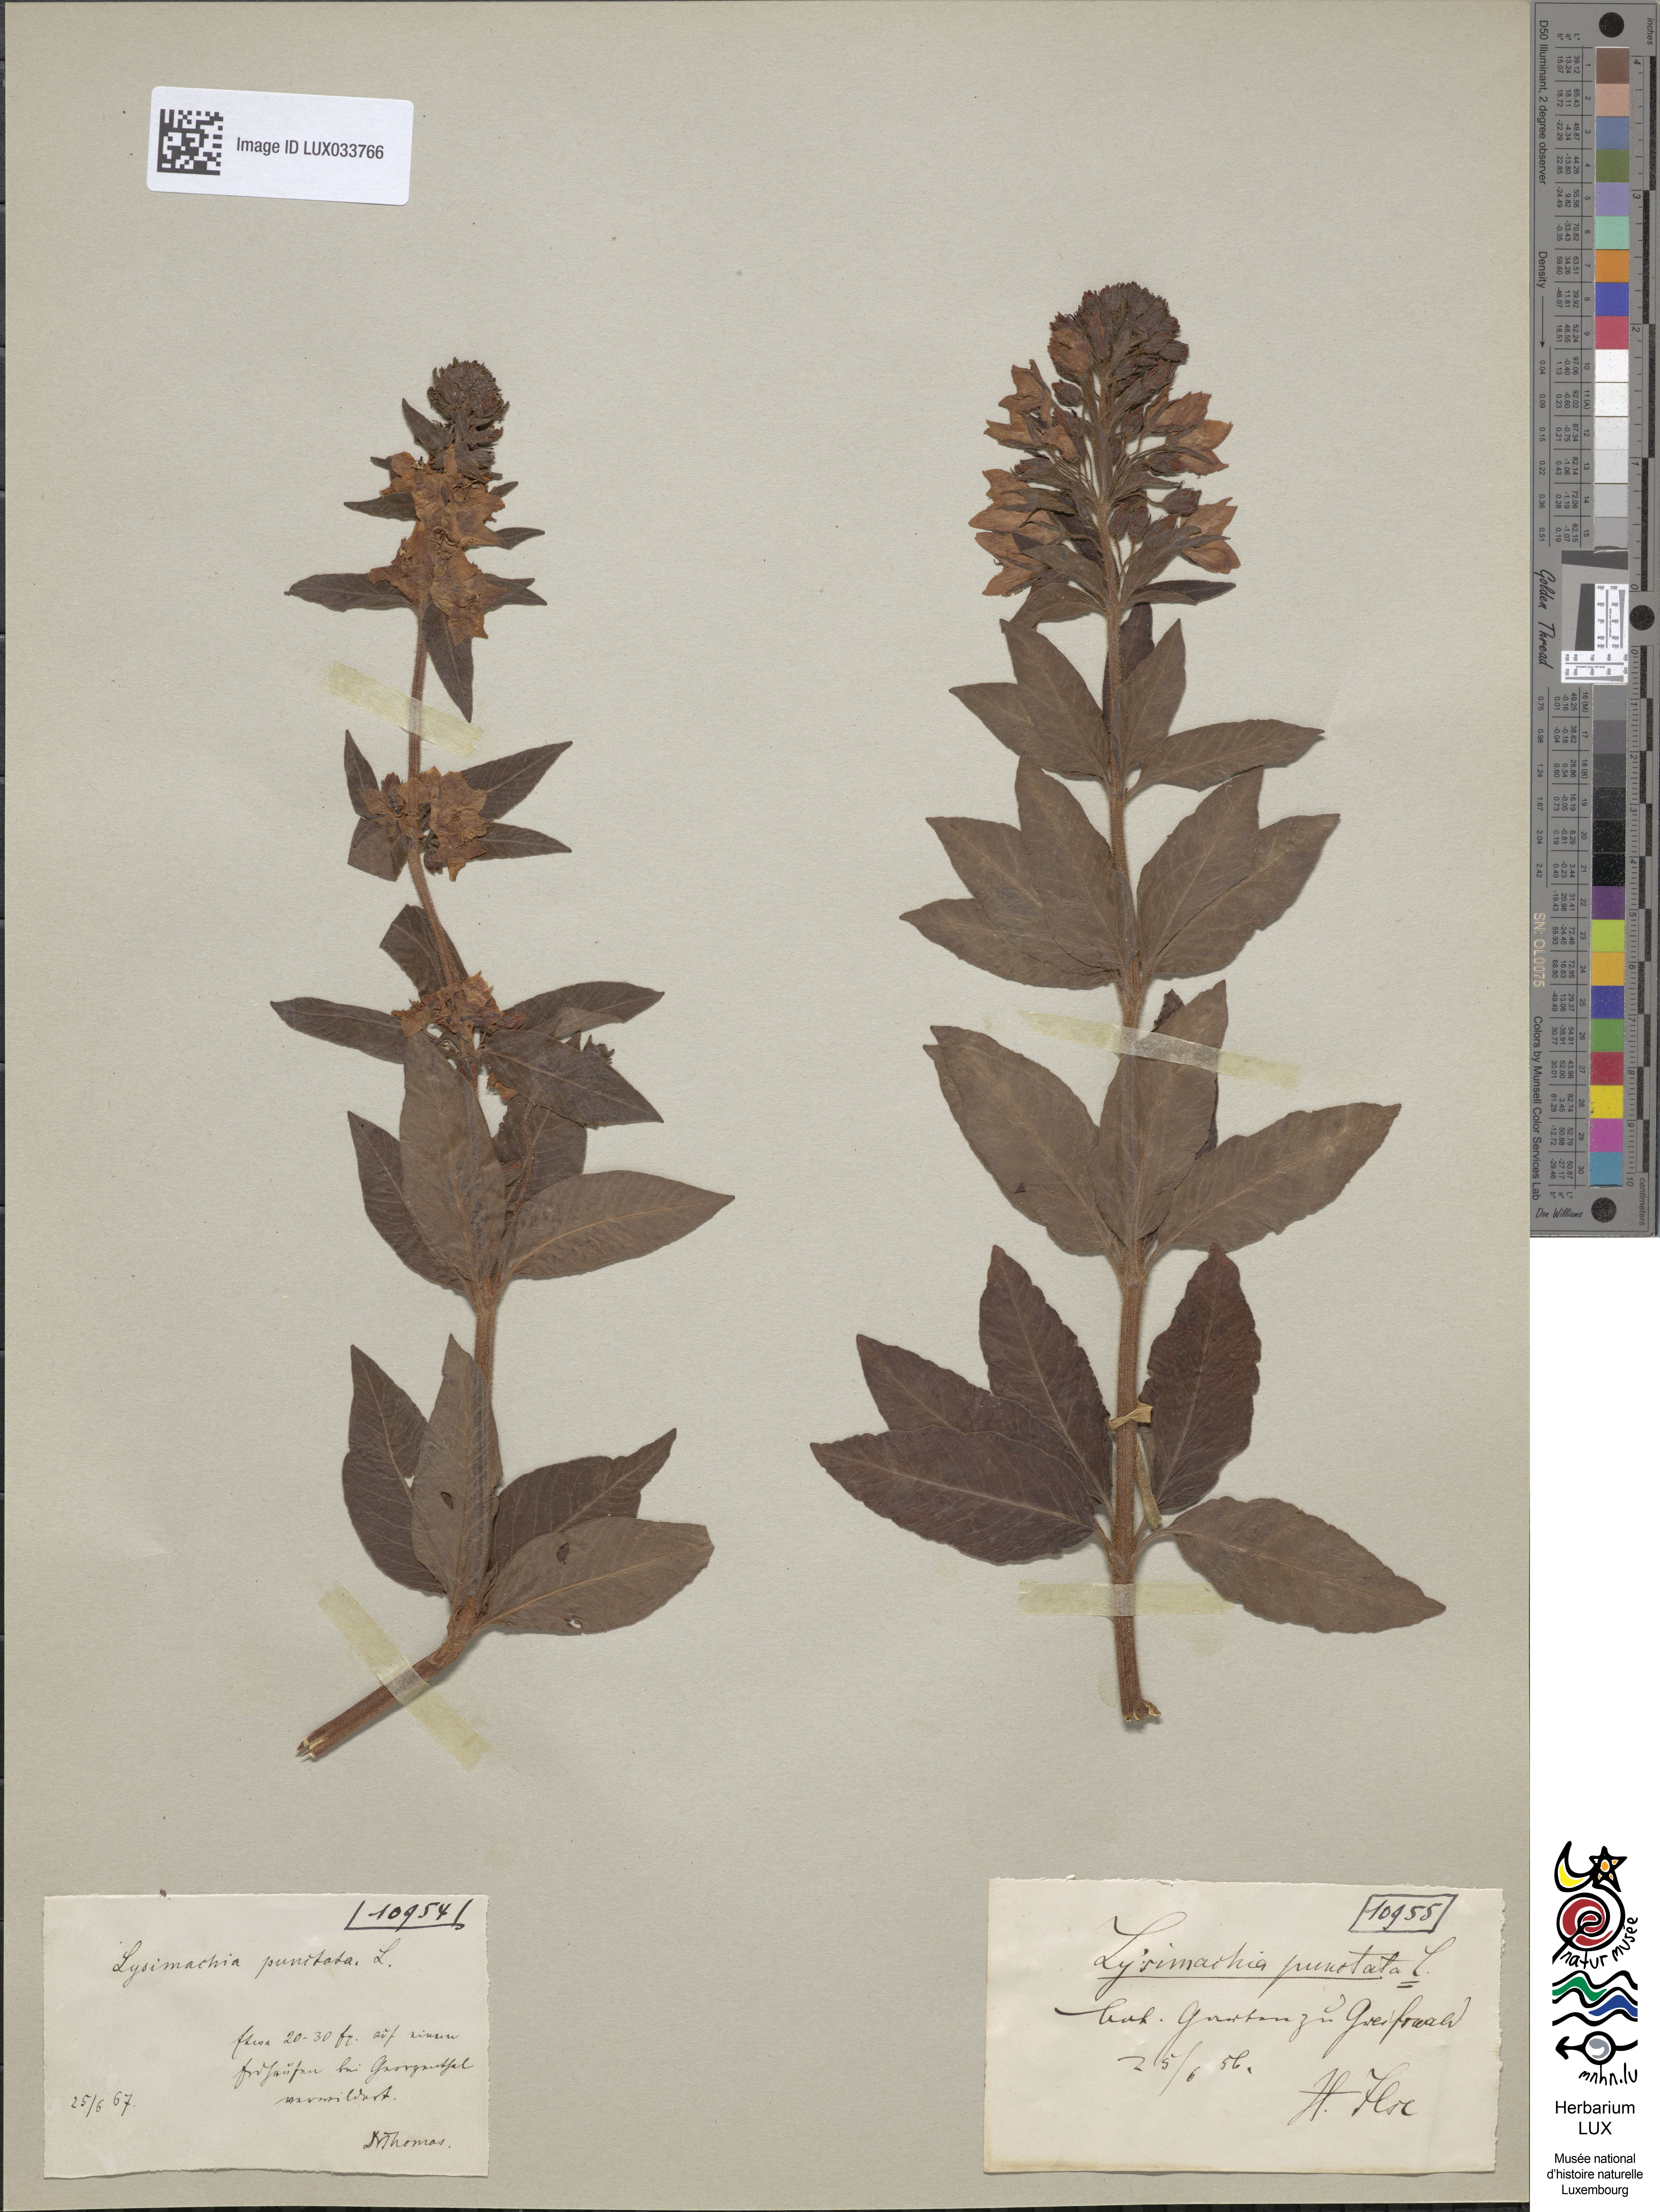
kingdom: Plantae
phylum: Tracheophyta
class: Magnoliopsida
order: Ericales
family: Primulaceae
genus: Lysimachia
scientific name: Lysimachia punctata
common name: Dotted loosestrife
